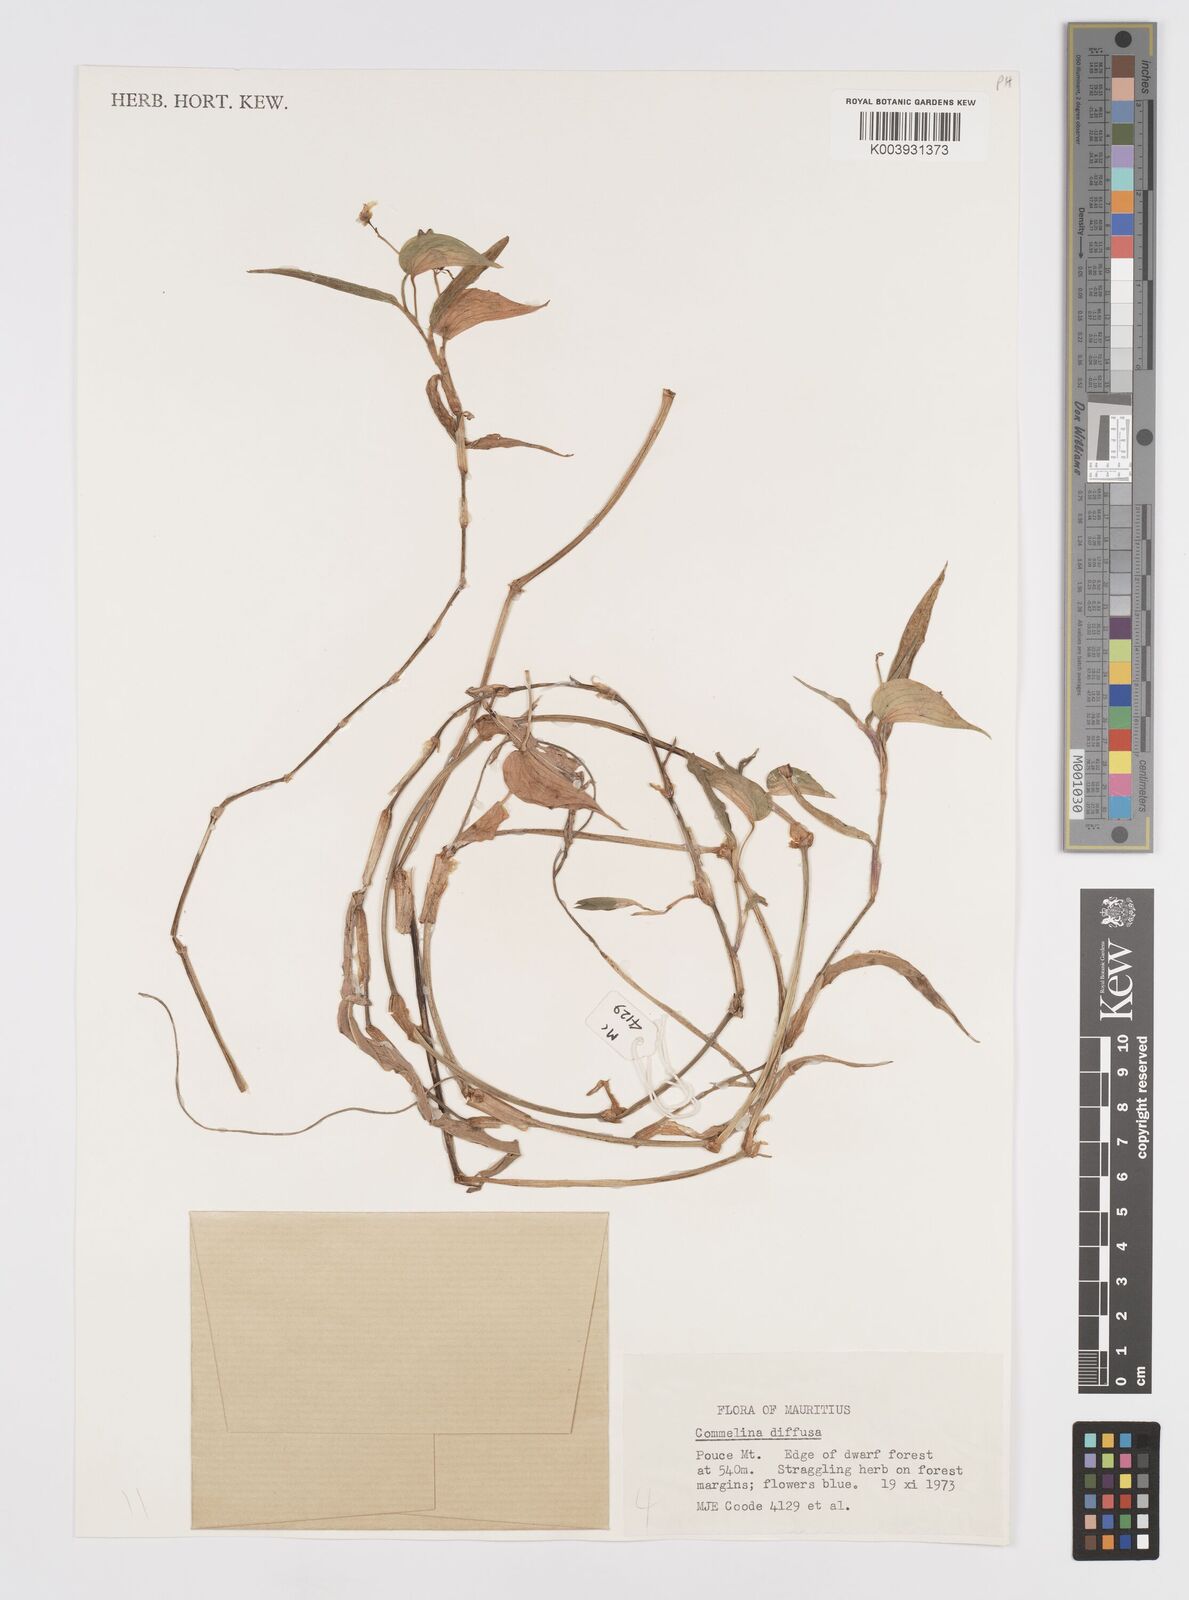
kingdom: Plantae
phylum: Tracheophyta
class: Liliopsida
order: Commelinales
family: Commelinaceae
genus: Murdannia
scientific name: Murdannia nudiflora
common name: Nakedstem dewflower
